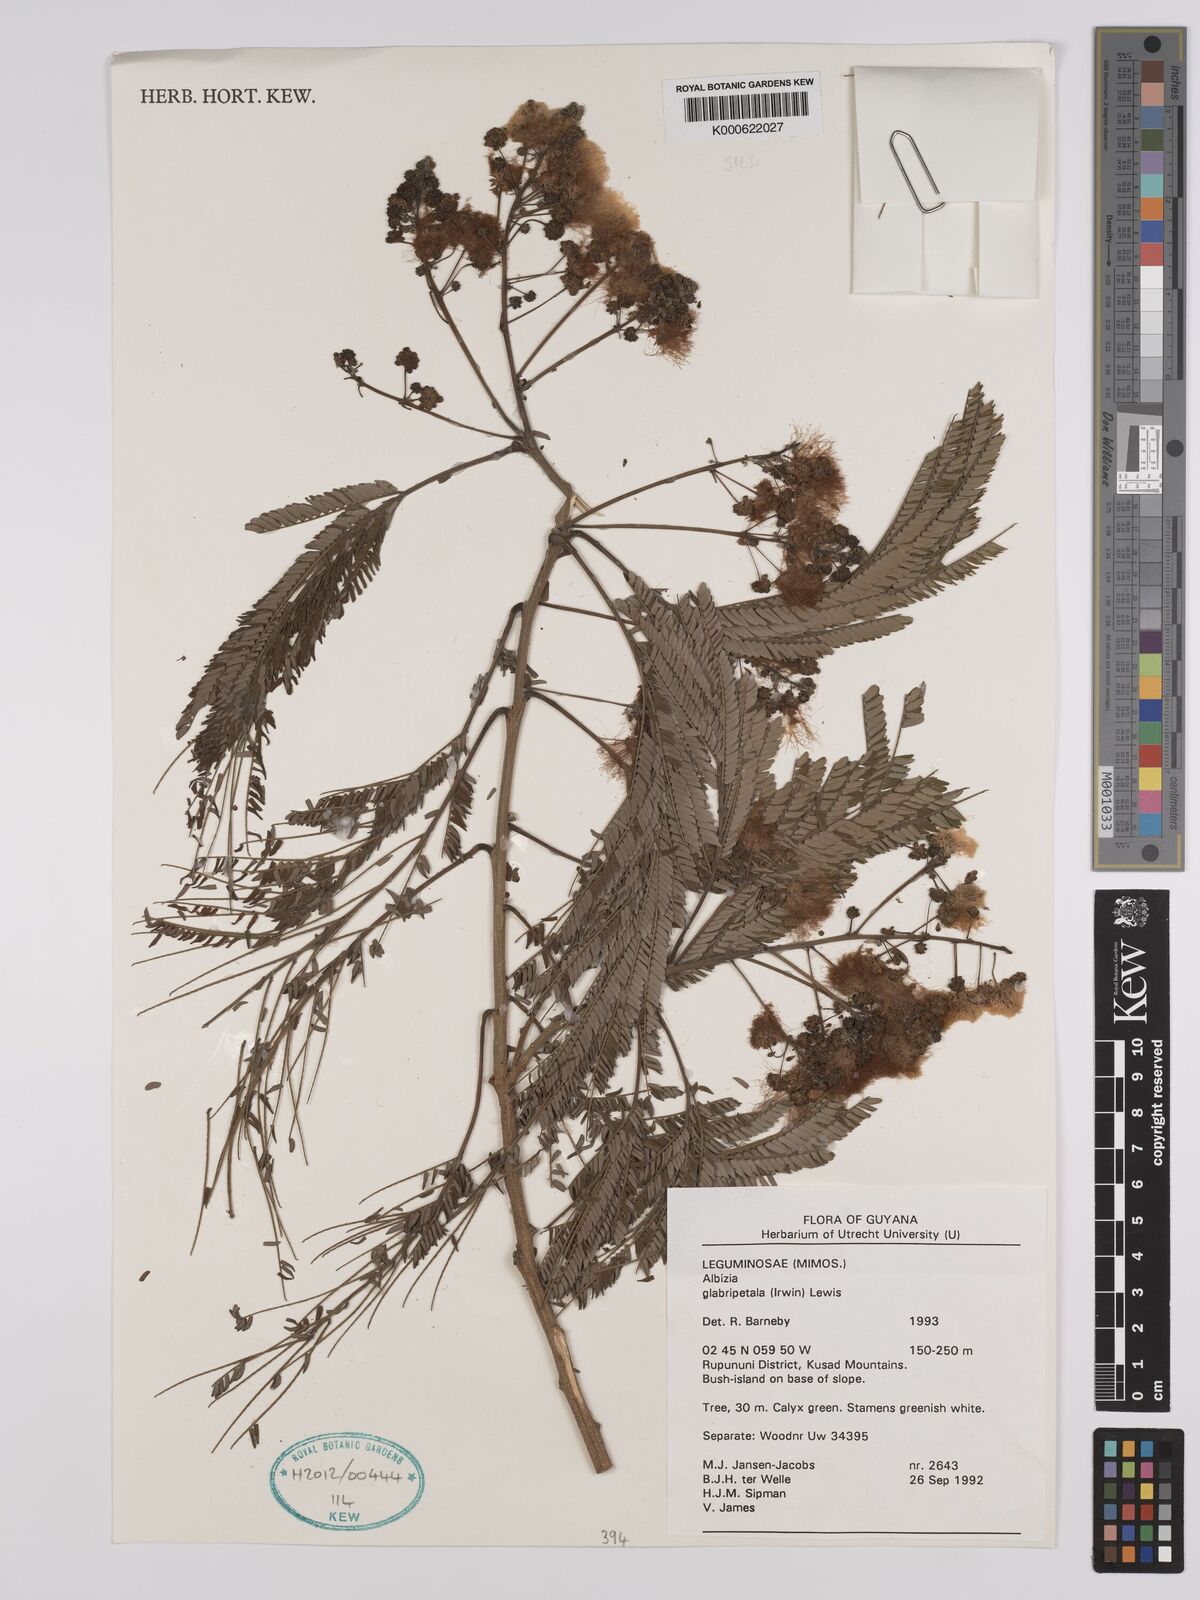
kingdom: Plantae
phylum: Tracheophyta
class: Magnoliopsida
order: Fabales
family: Fabaceae
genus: Albizia
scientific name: Albizia glabripetala
